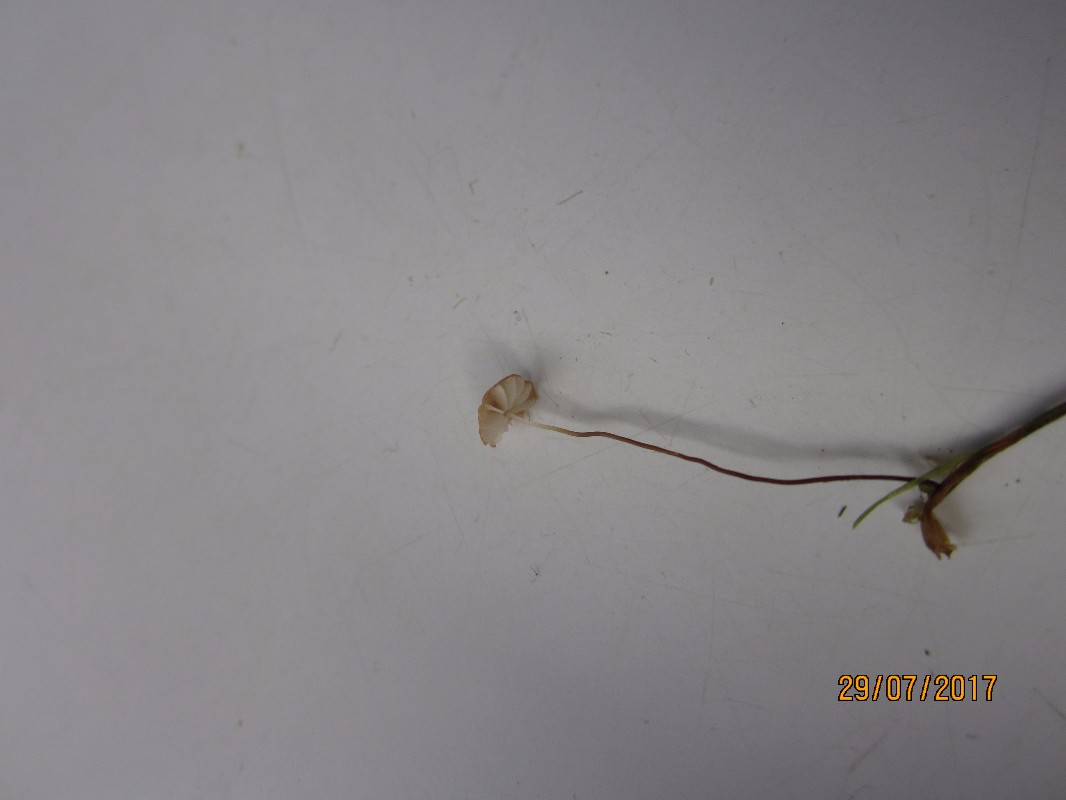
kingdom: Fungi
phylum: Basidiomycota
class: Agaricomycetes
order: Agaricales
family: Marasmiaceae
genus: Marasmius
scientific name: Marasmius curreyi
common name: teglrød bruskhat
